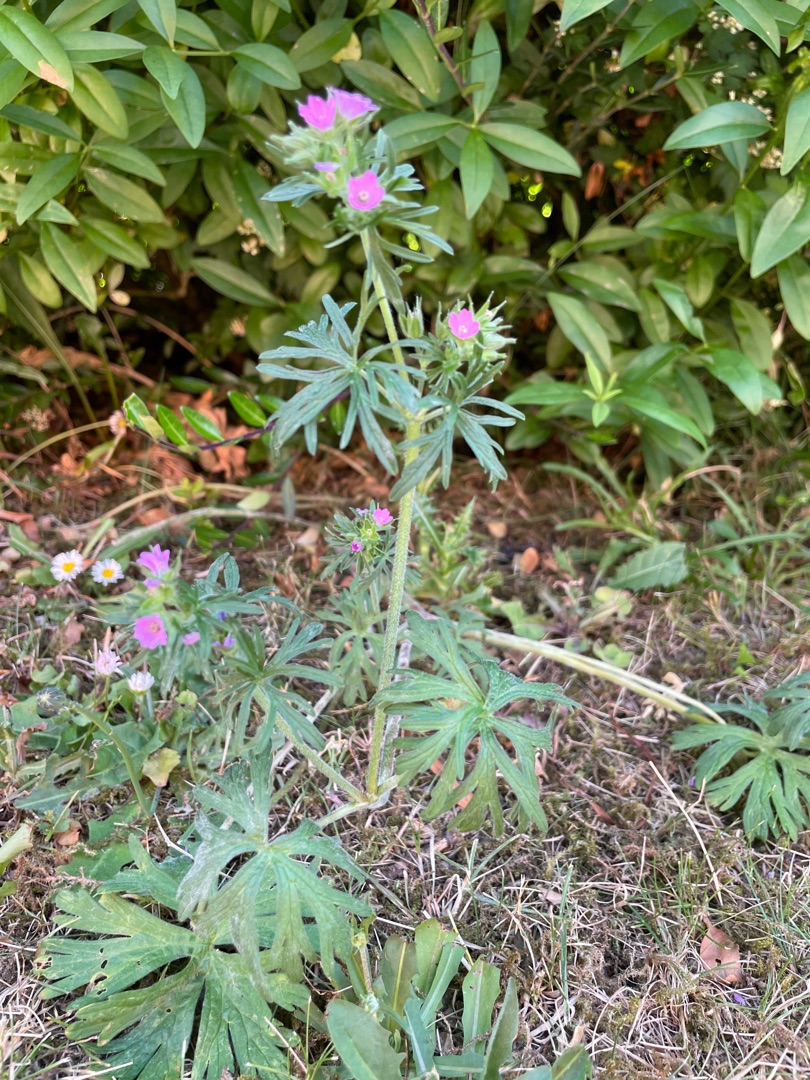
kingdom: Plantae
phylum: Tracheophyta
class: Magnoliopsida
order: Geraniales
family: Geraniaceae
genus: Geranium
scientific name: Geranium dissectum
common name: Kløftet storkenæb
